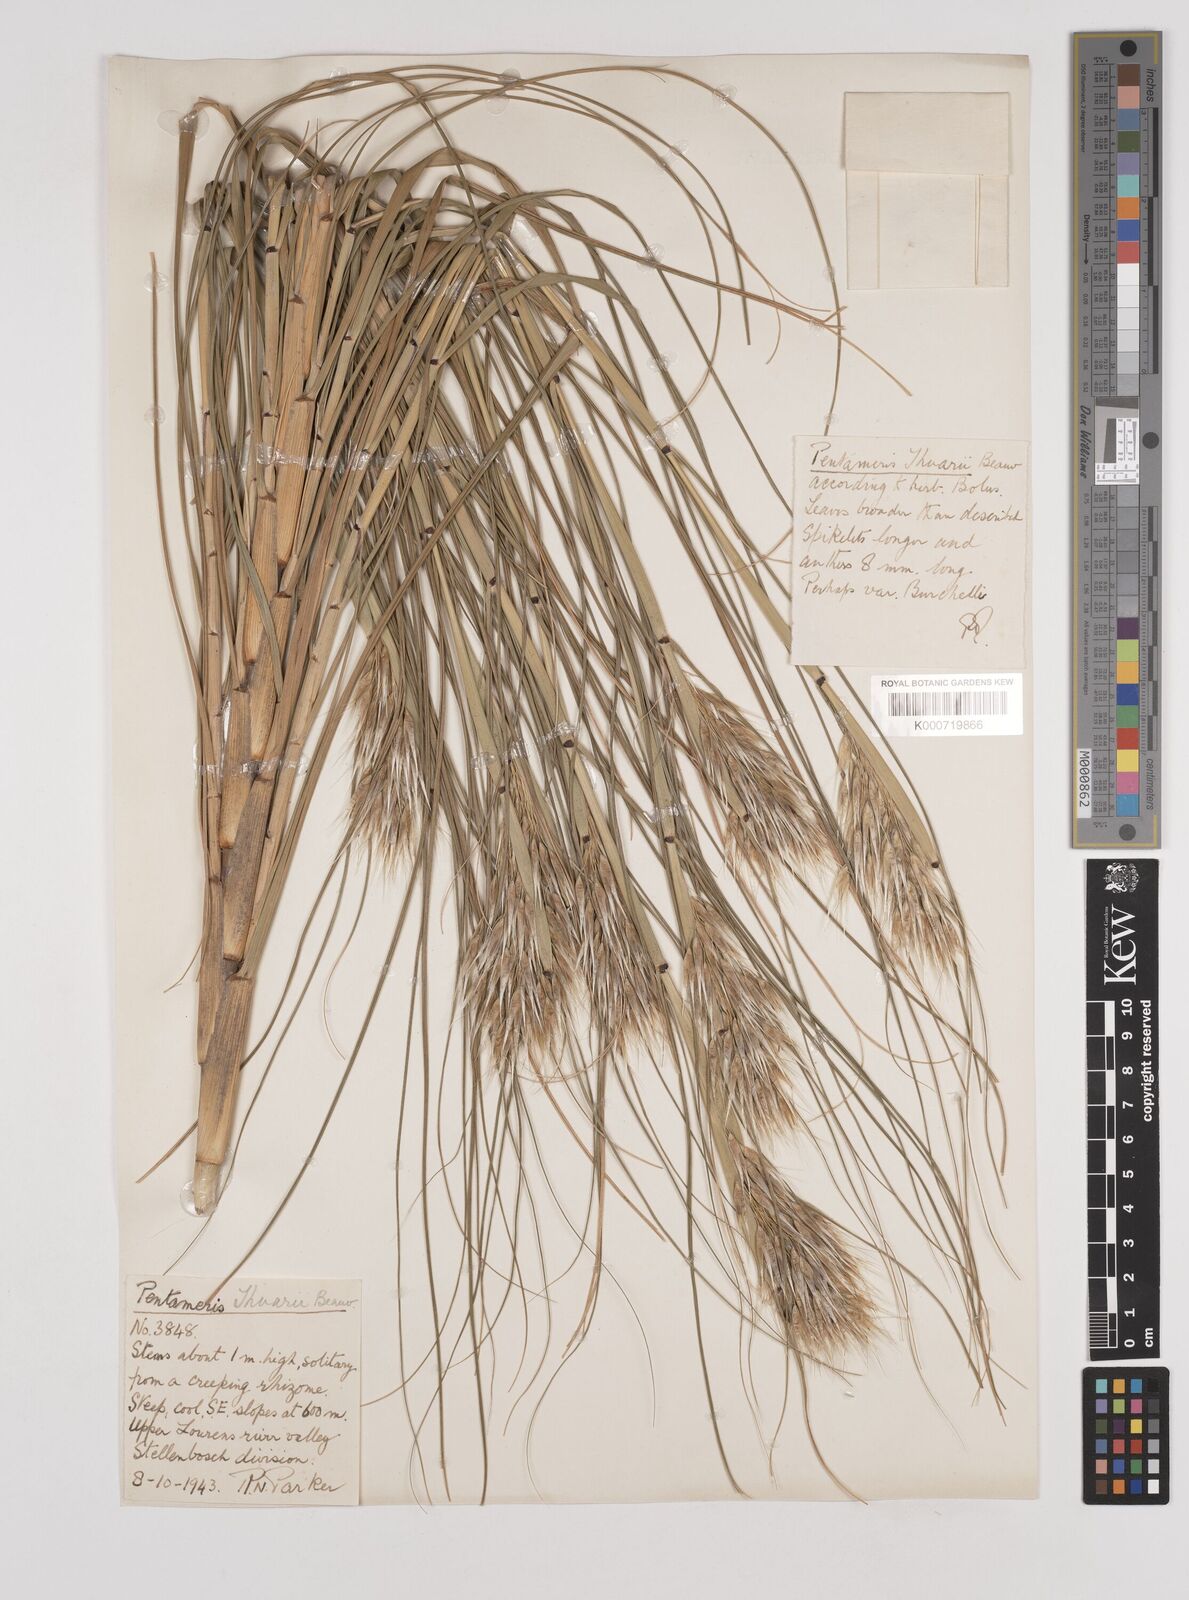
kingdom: Plantae
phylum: Tracheophyta
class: Liliopsida
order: Poales
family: Poaceae
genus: Pentameris
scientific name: Pentameris thuarii
